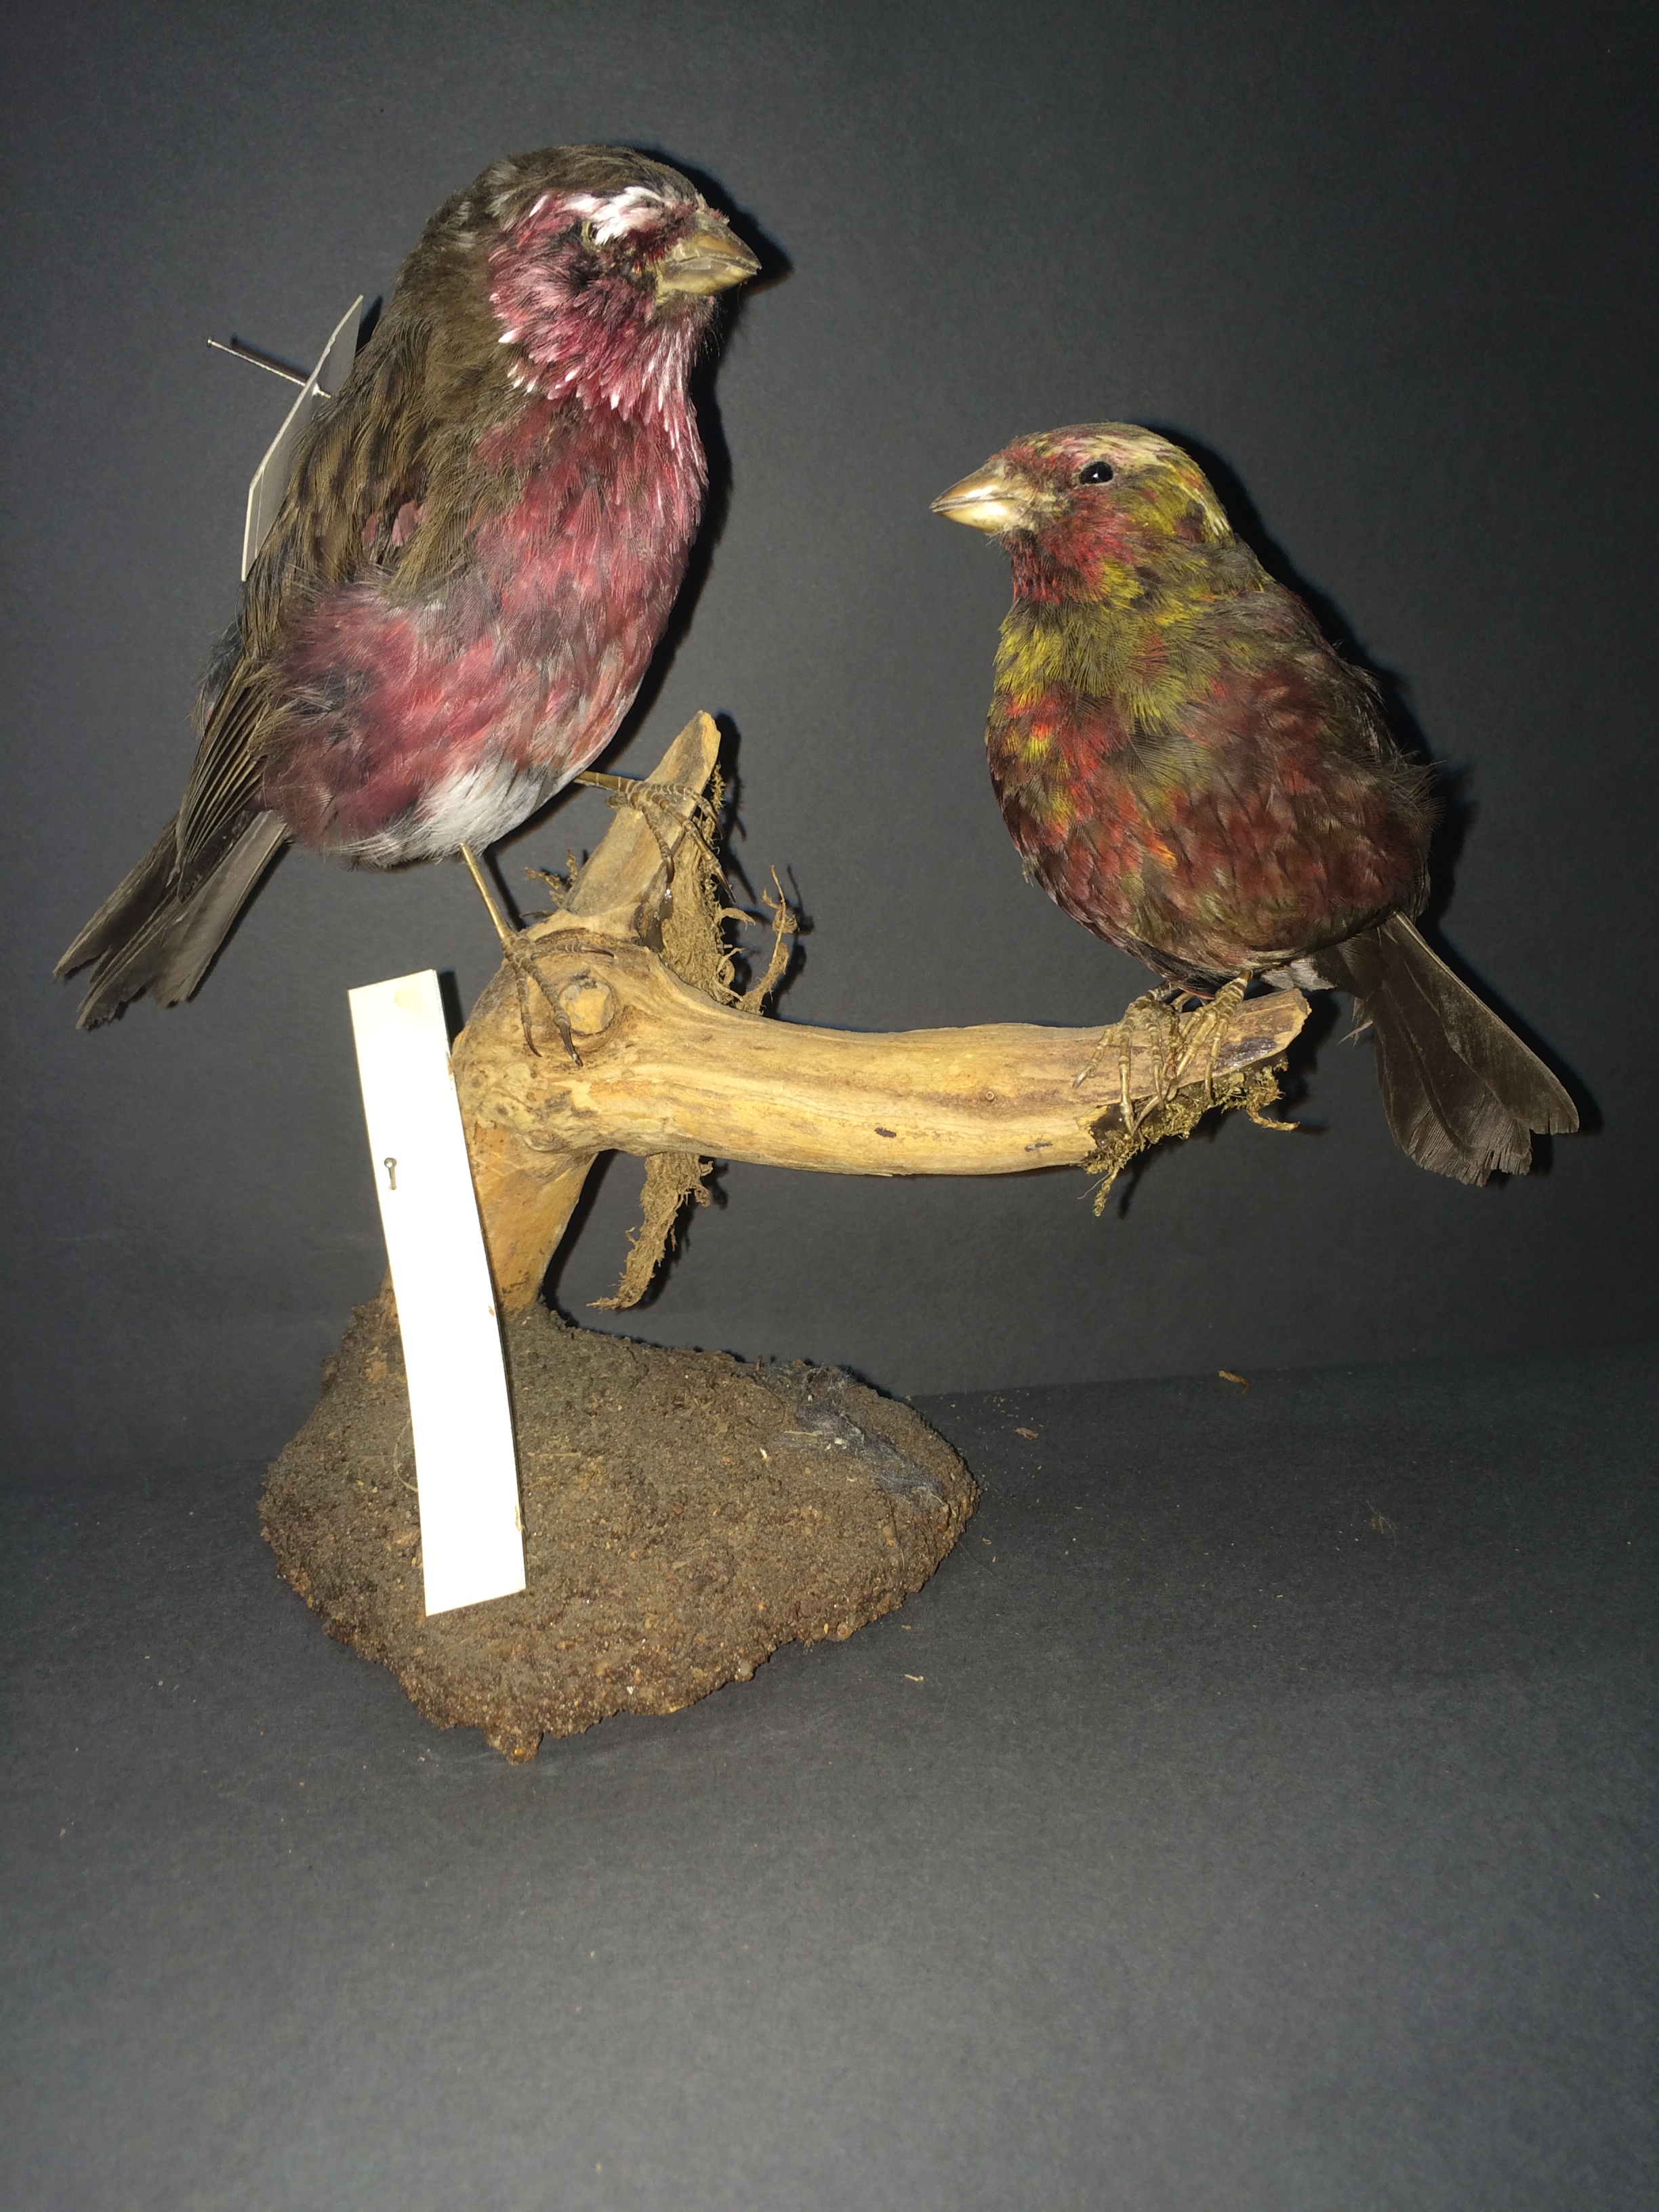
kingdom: Animalia
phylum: Chordata
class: Aves
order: Passeriformes
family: Fringillidae
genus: Carpodacus
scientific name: Carpodacus thura
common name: Himalayan white-browed rosefinch
